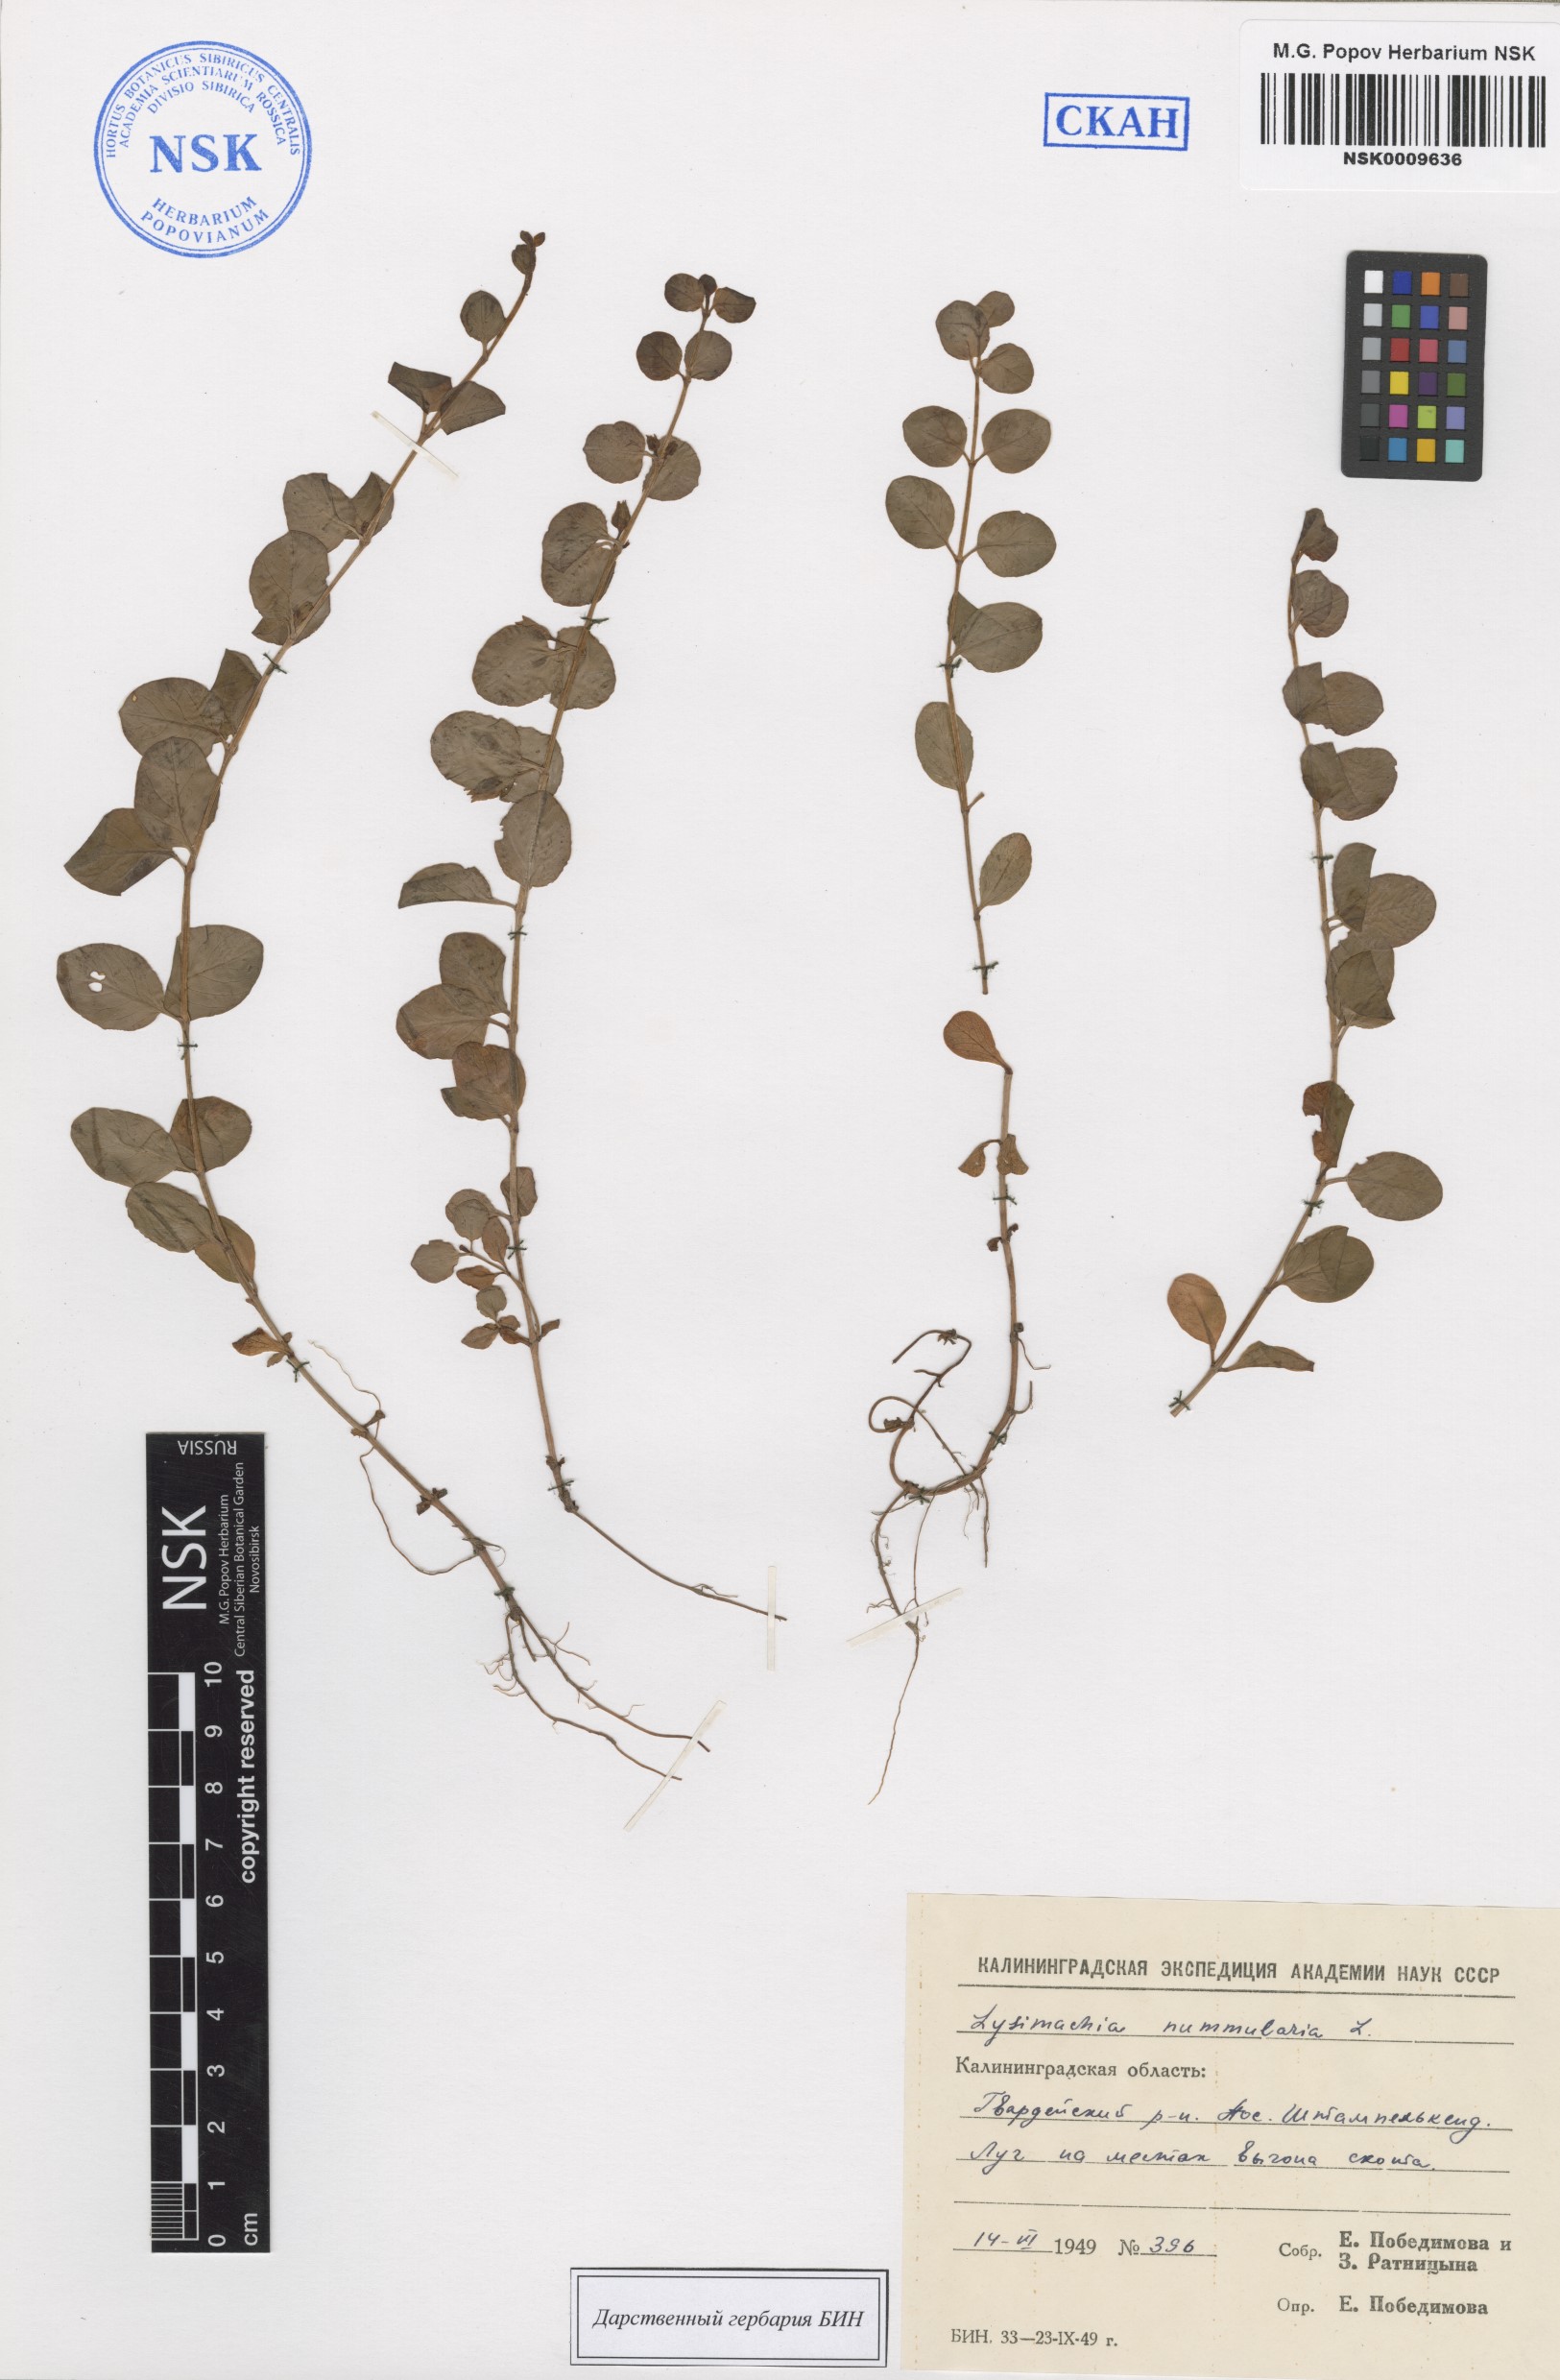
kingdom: Plantae
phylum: Tracheophyta
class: Magnoliopsida
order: Ericales
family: Primulaceae
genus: Lysimachia
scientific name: Lysimachia nummularia
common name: Moneywort
